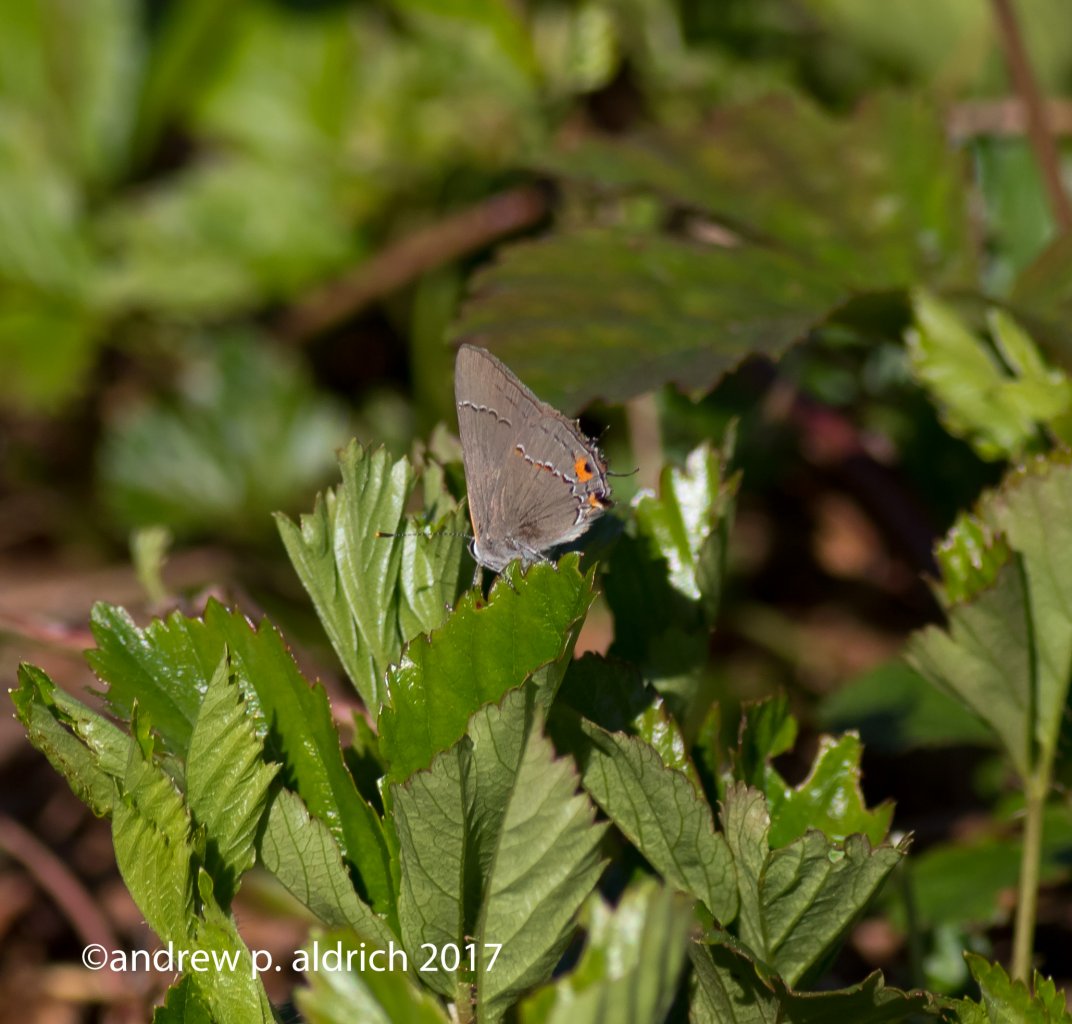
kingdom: Animalia
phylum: Arthropoda
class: Insecta
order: Lepidoptera
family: Lycaenidae
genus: Strymon
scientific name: Strymon melinus
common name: Gray Hairstreak
